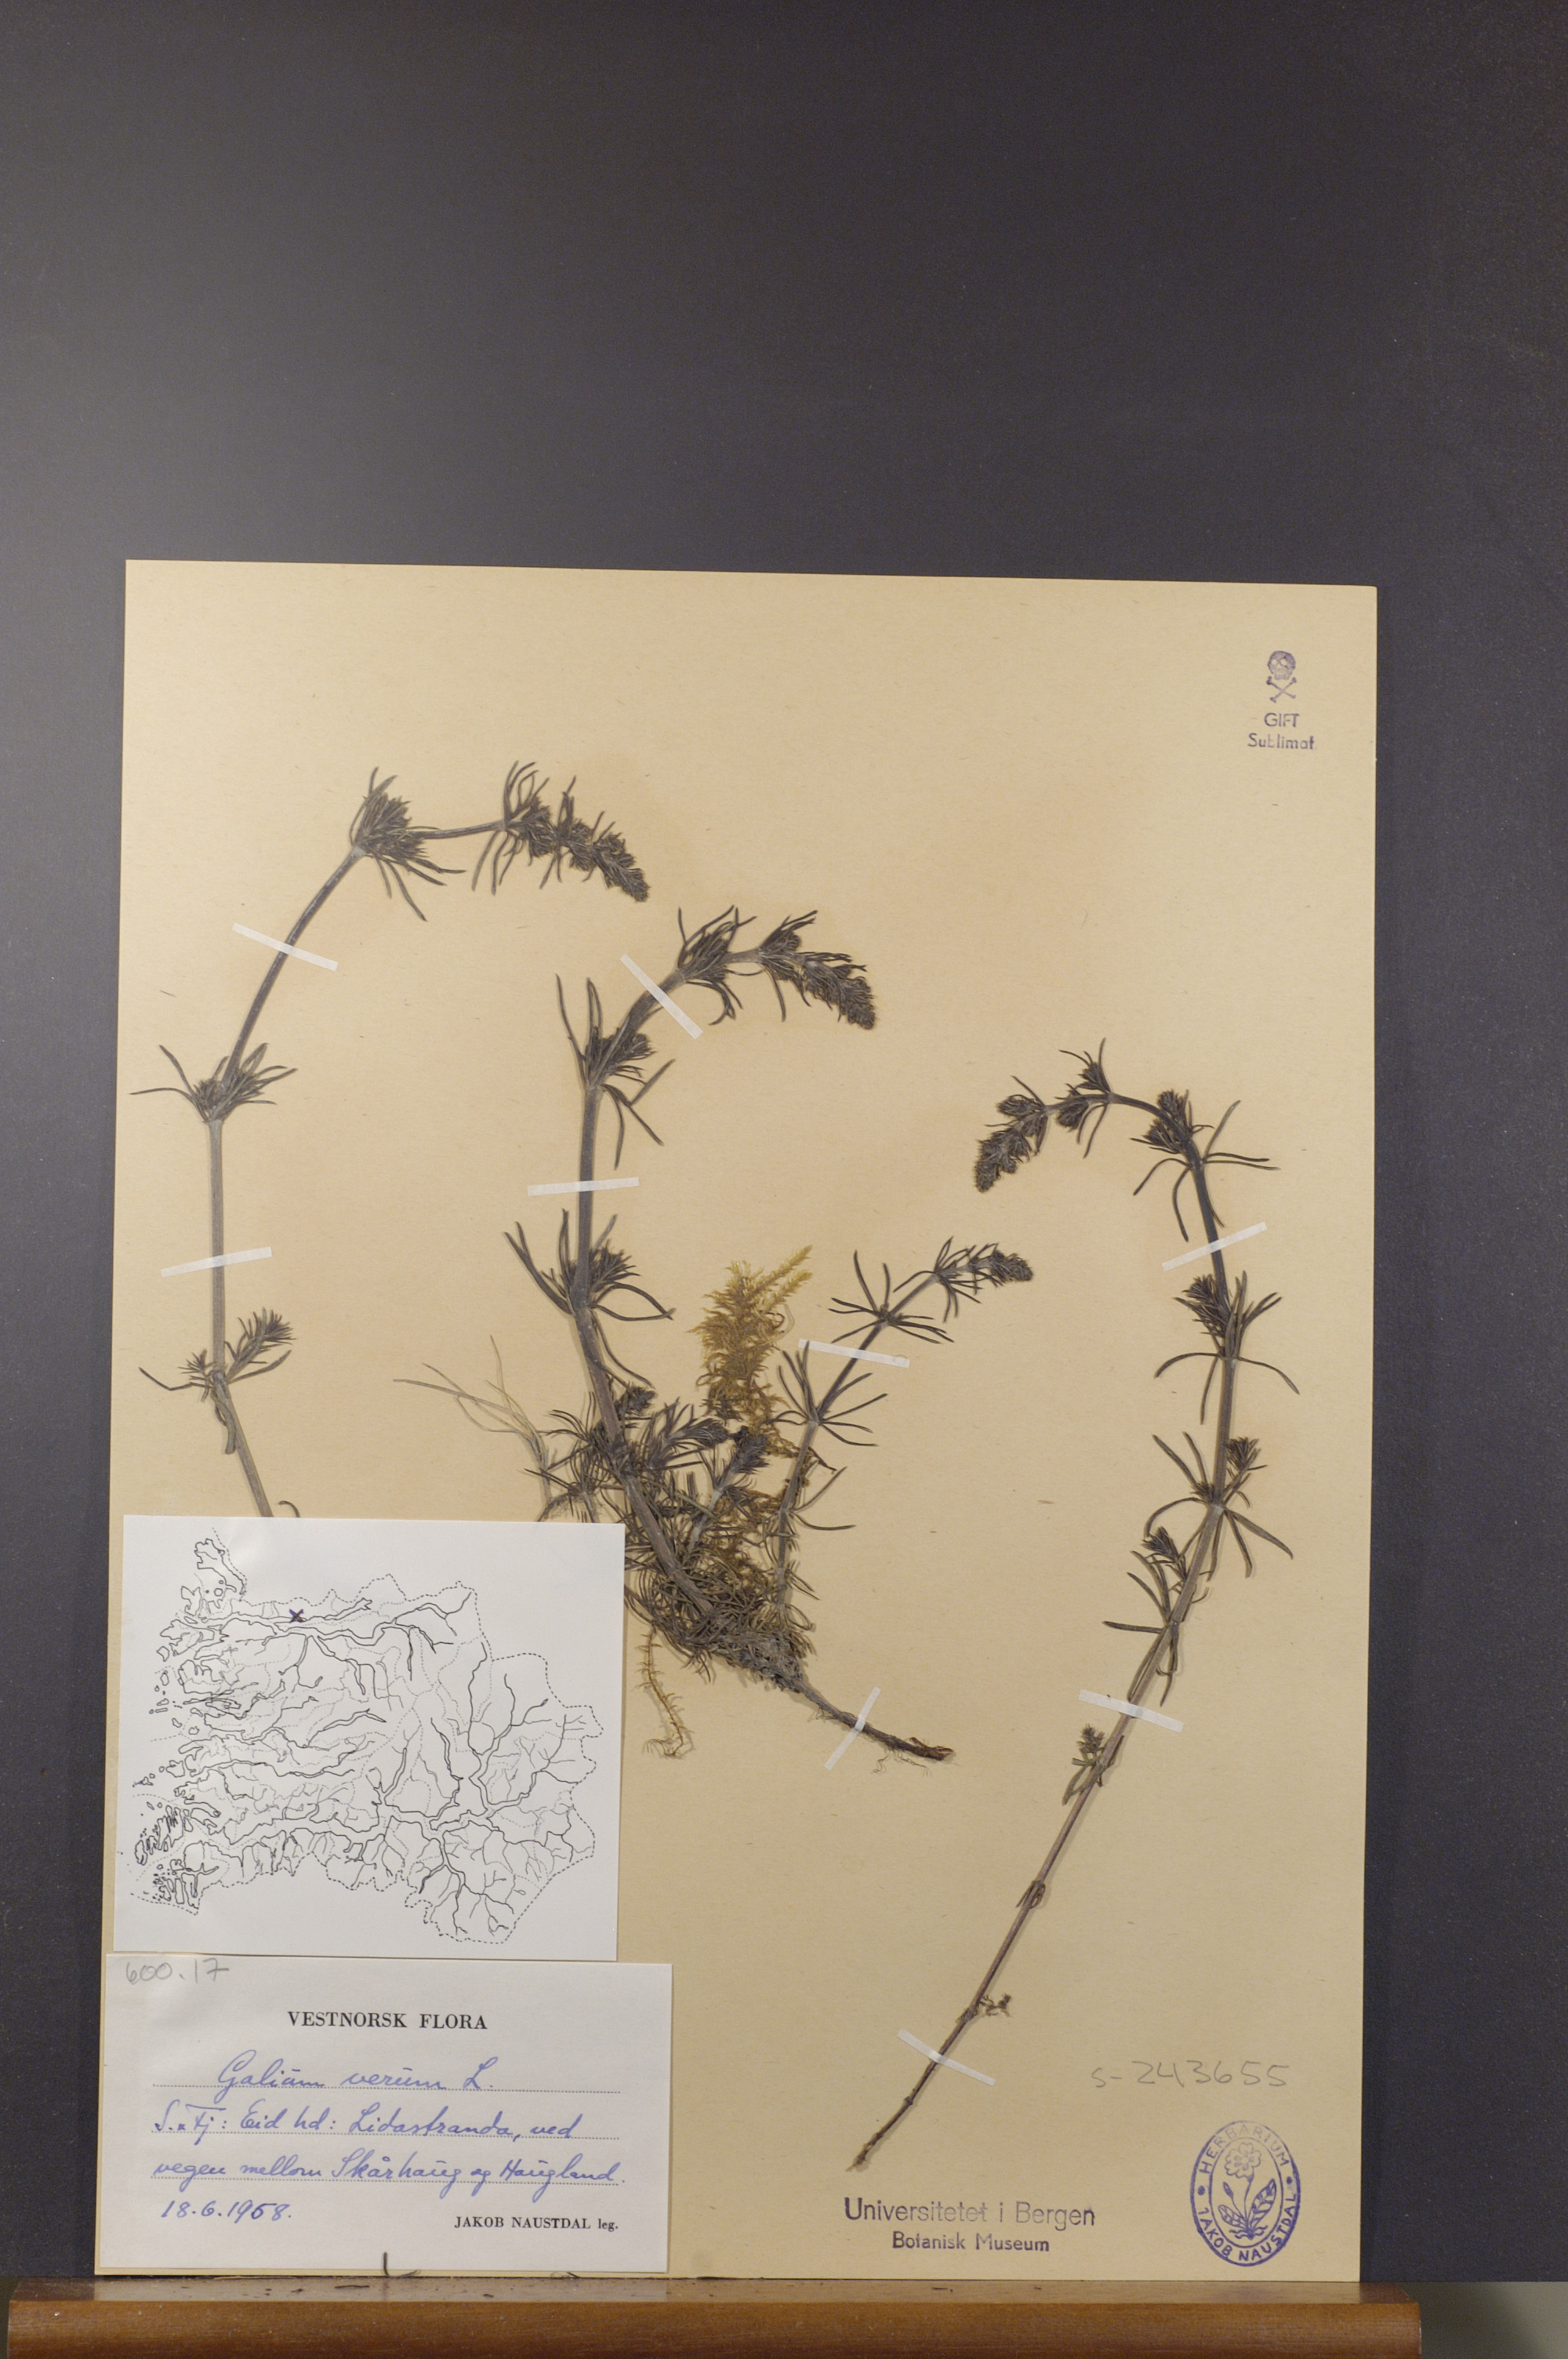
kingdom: Plantae
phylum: Tracheophyta
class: Magnoliopsida
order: Gentianales
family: Rubiaceae
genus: Galium
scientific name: Galium verum
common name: Lady's bedstraw
